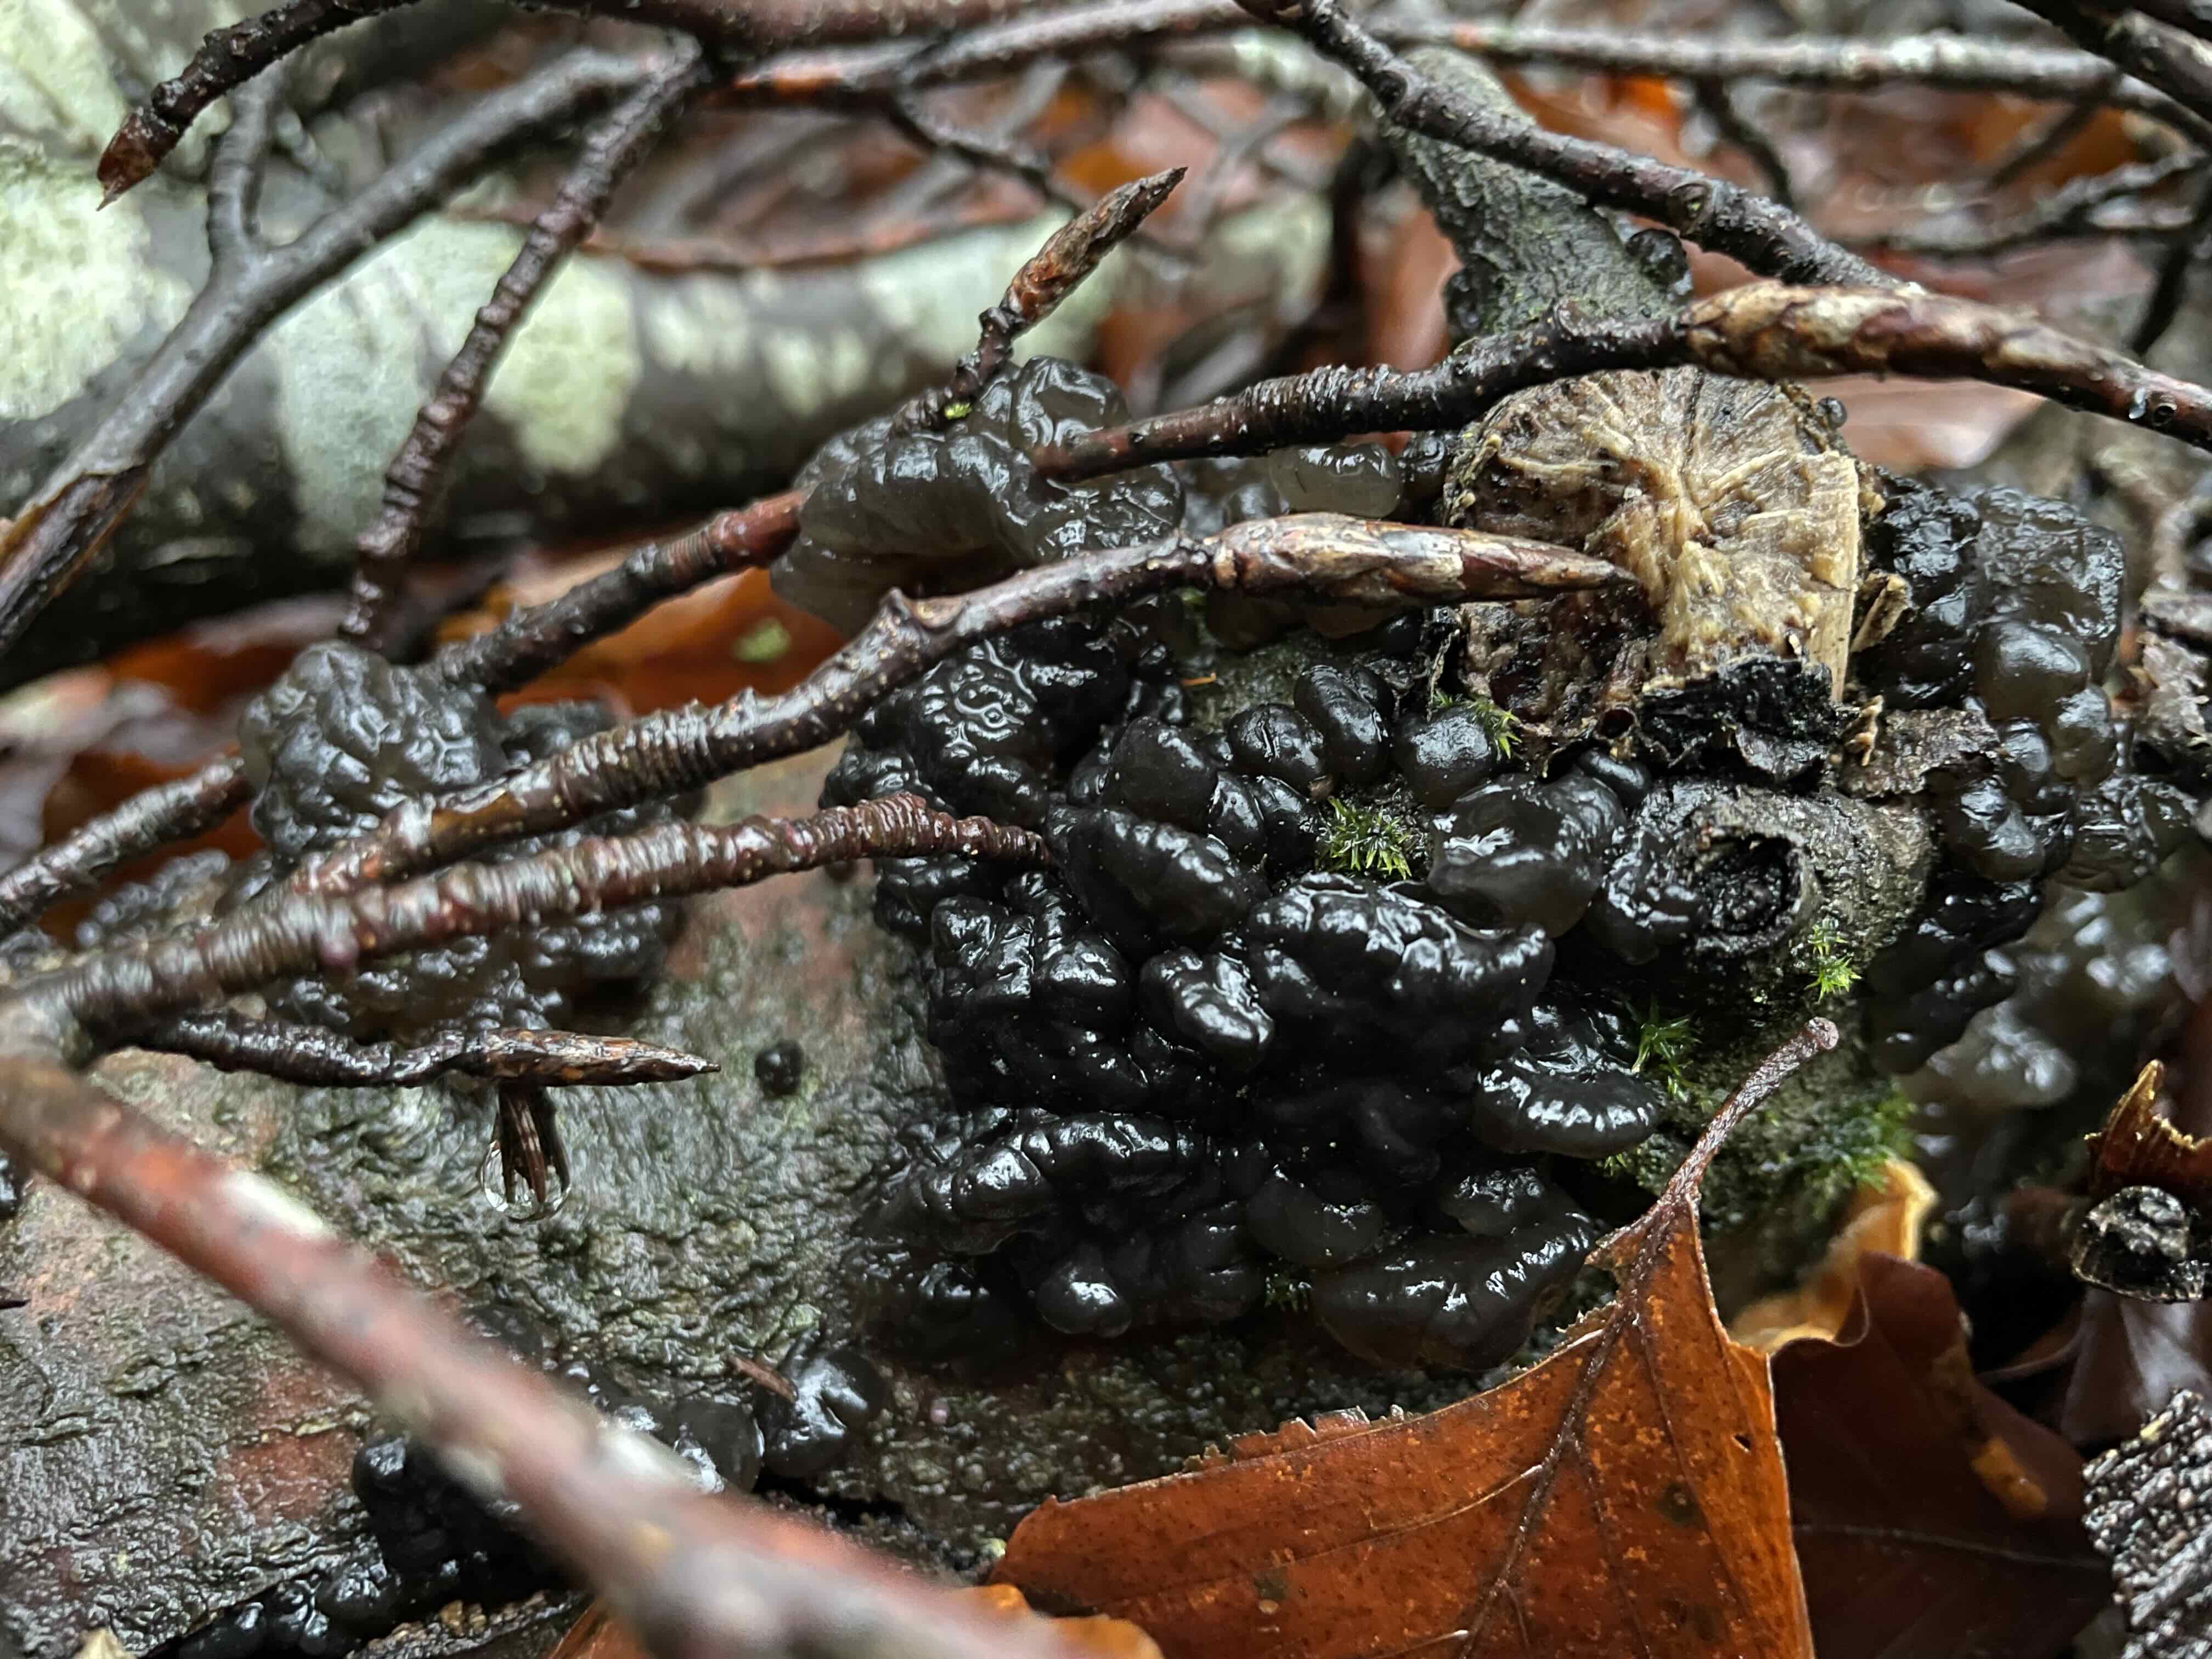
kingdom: Fungi
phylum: Basidiomycota
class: Agaricomycetes
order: Auriculariales
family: Auriculariaceae
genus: Exidia
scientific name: Exidia nigricans
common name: almindelig bævretop
